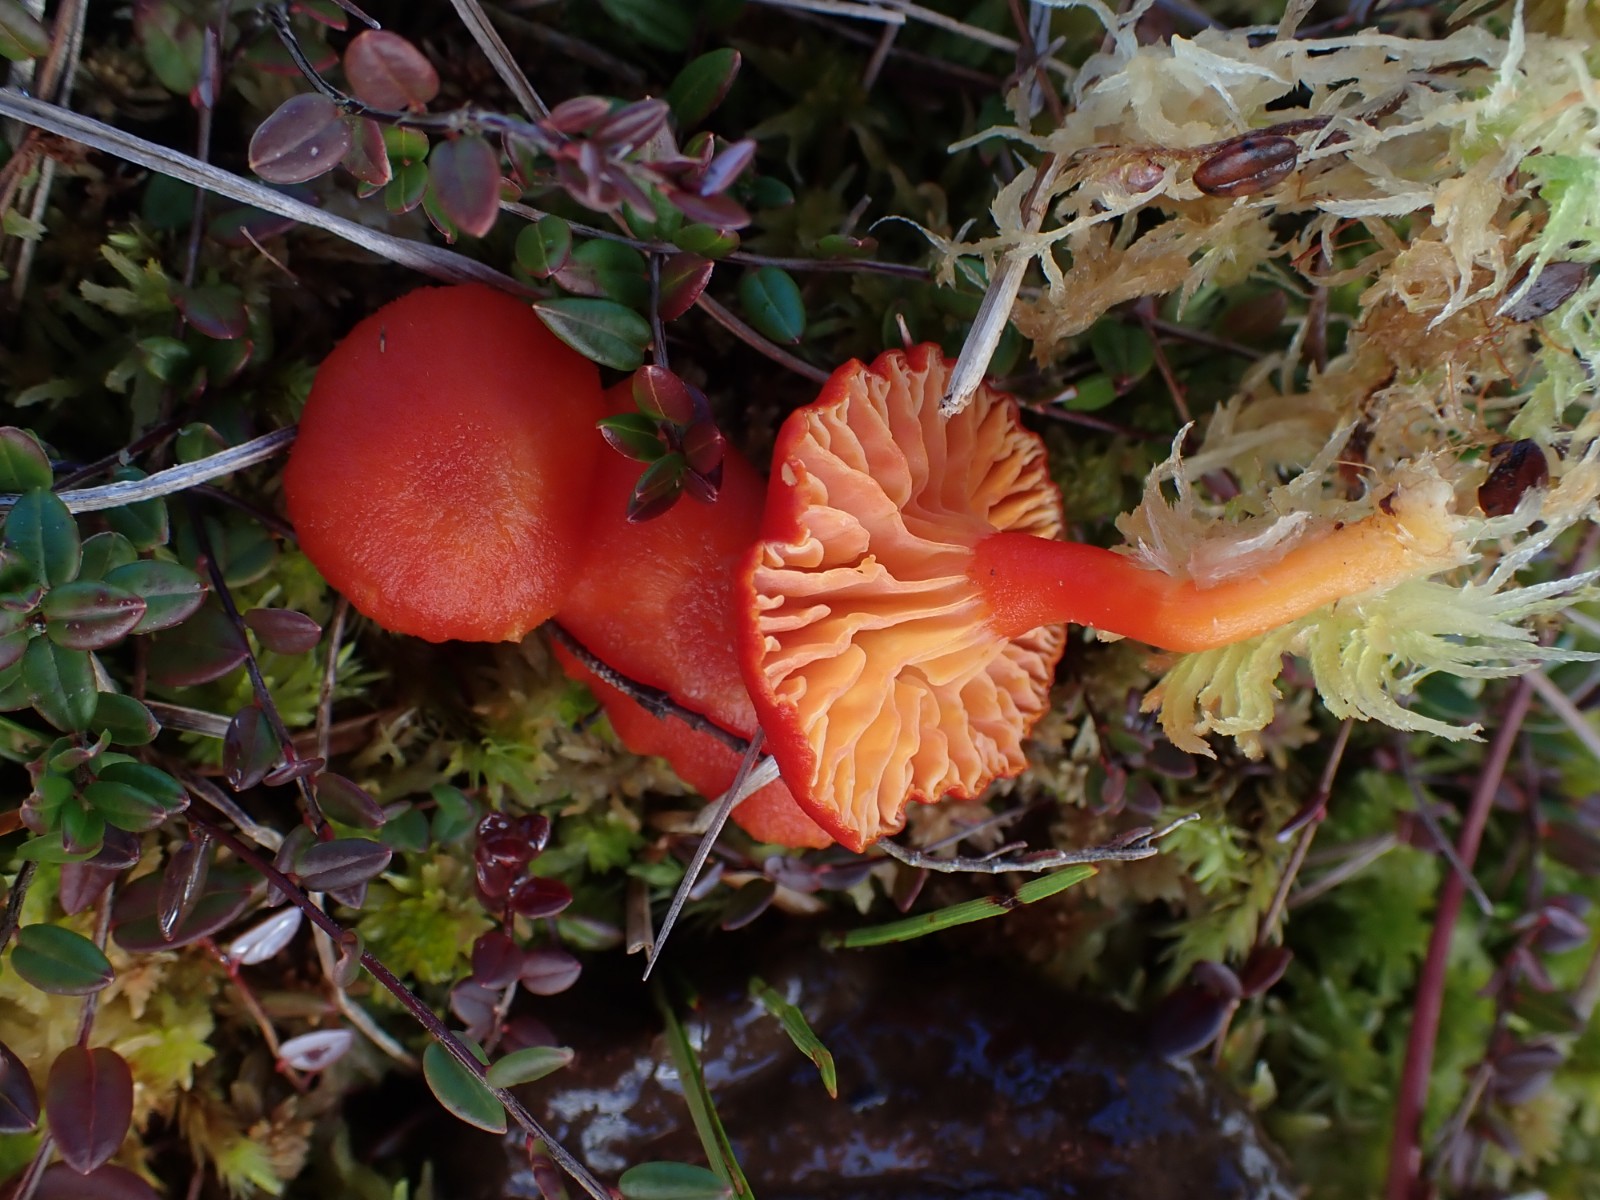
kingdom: Fungi
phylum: Basidiomycota
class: Agaricomycetes
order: Agaricales
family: Hygrophoraceae
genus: Hygrocybe
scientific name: Hygrocybe
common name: vokshat
